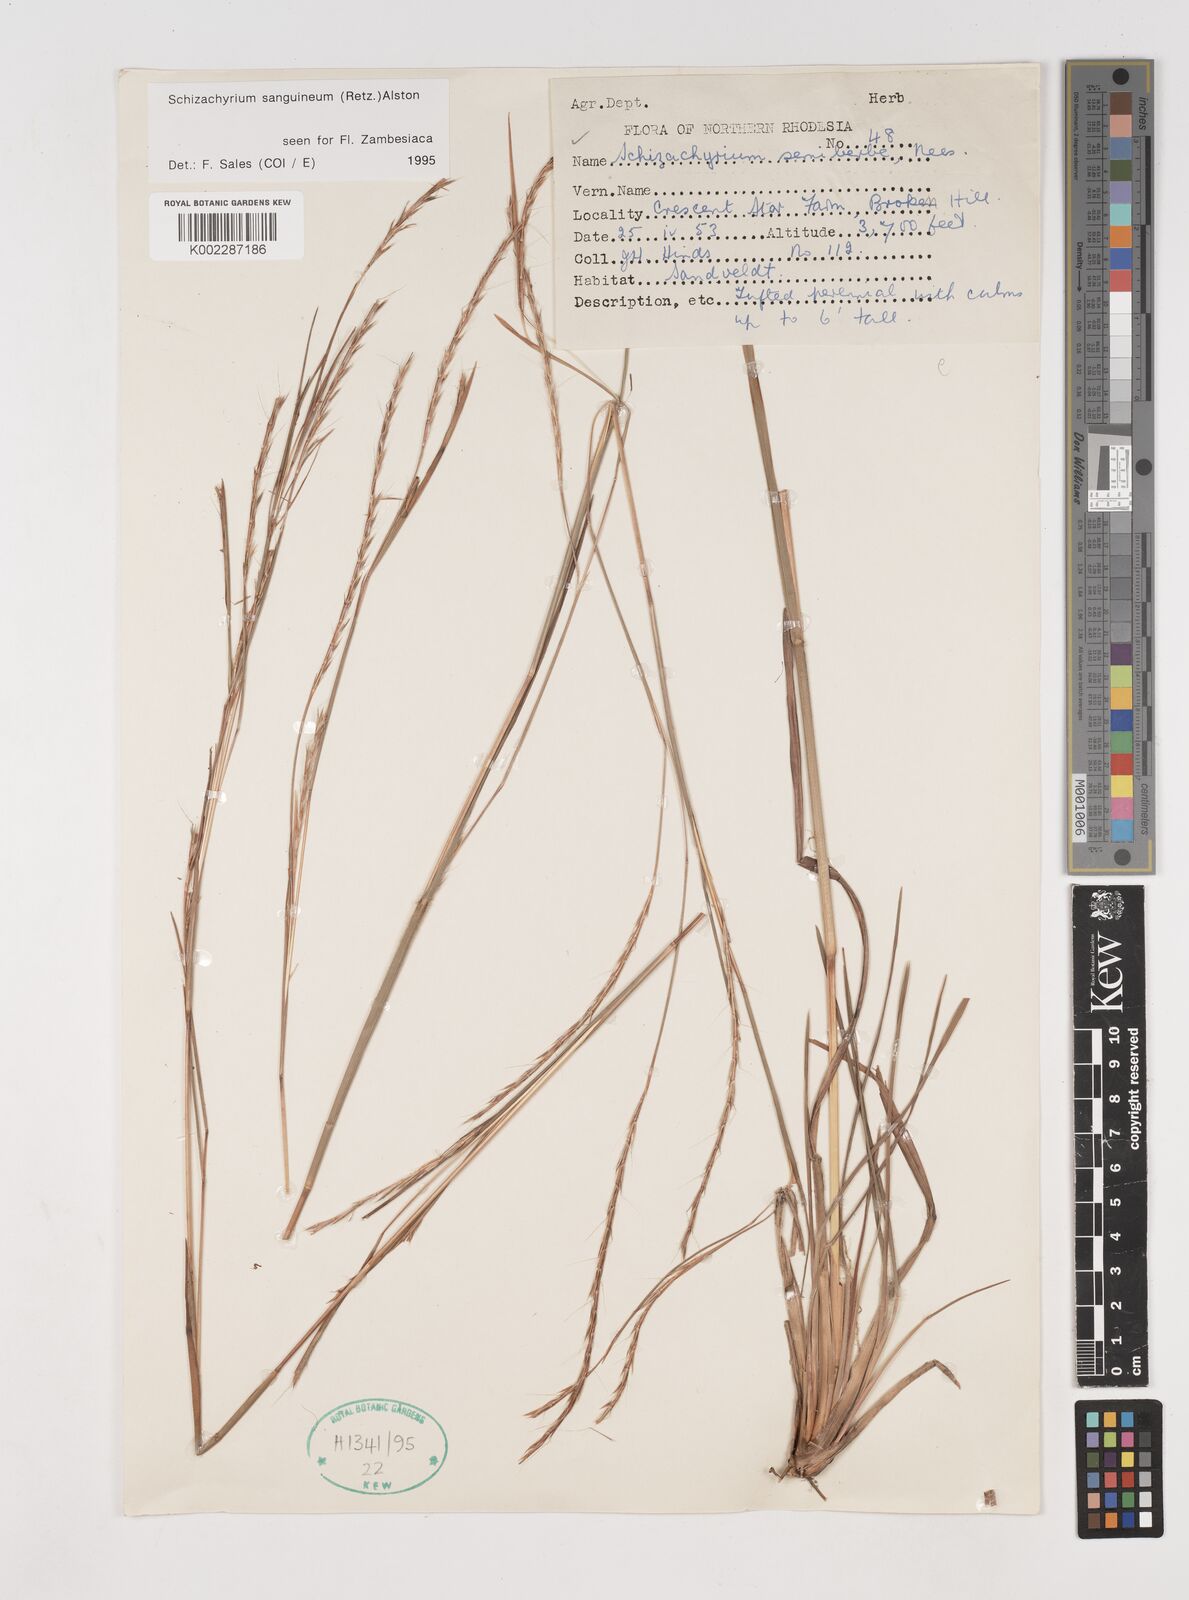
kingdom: Plantae
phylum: Tracheophyta
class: Liliopsida
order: Poales
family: Poaceae
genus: Schizachyrium
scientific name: Schizachyrium sanguineum
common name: Crimson bluestem
